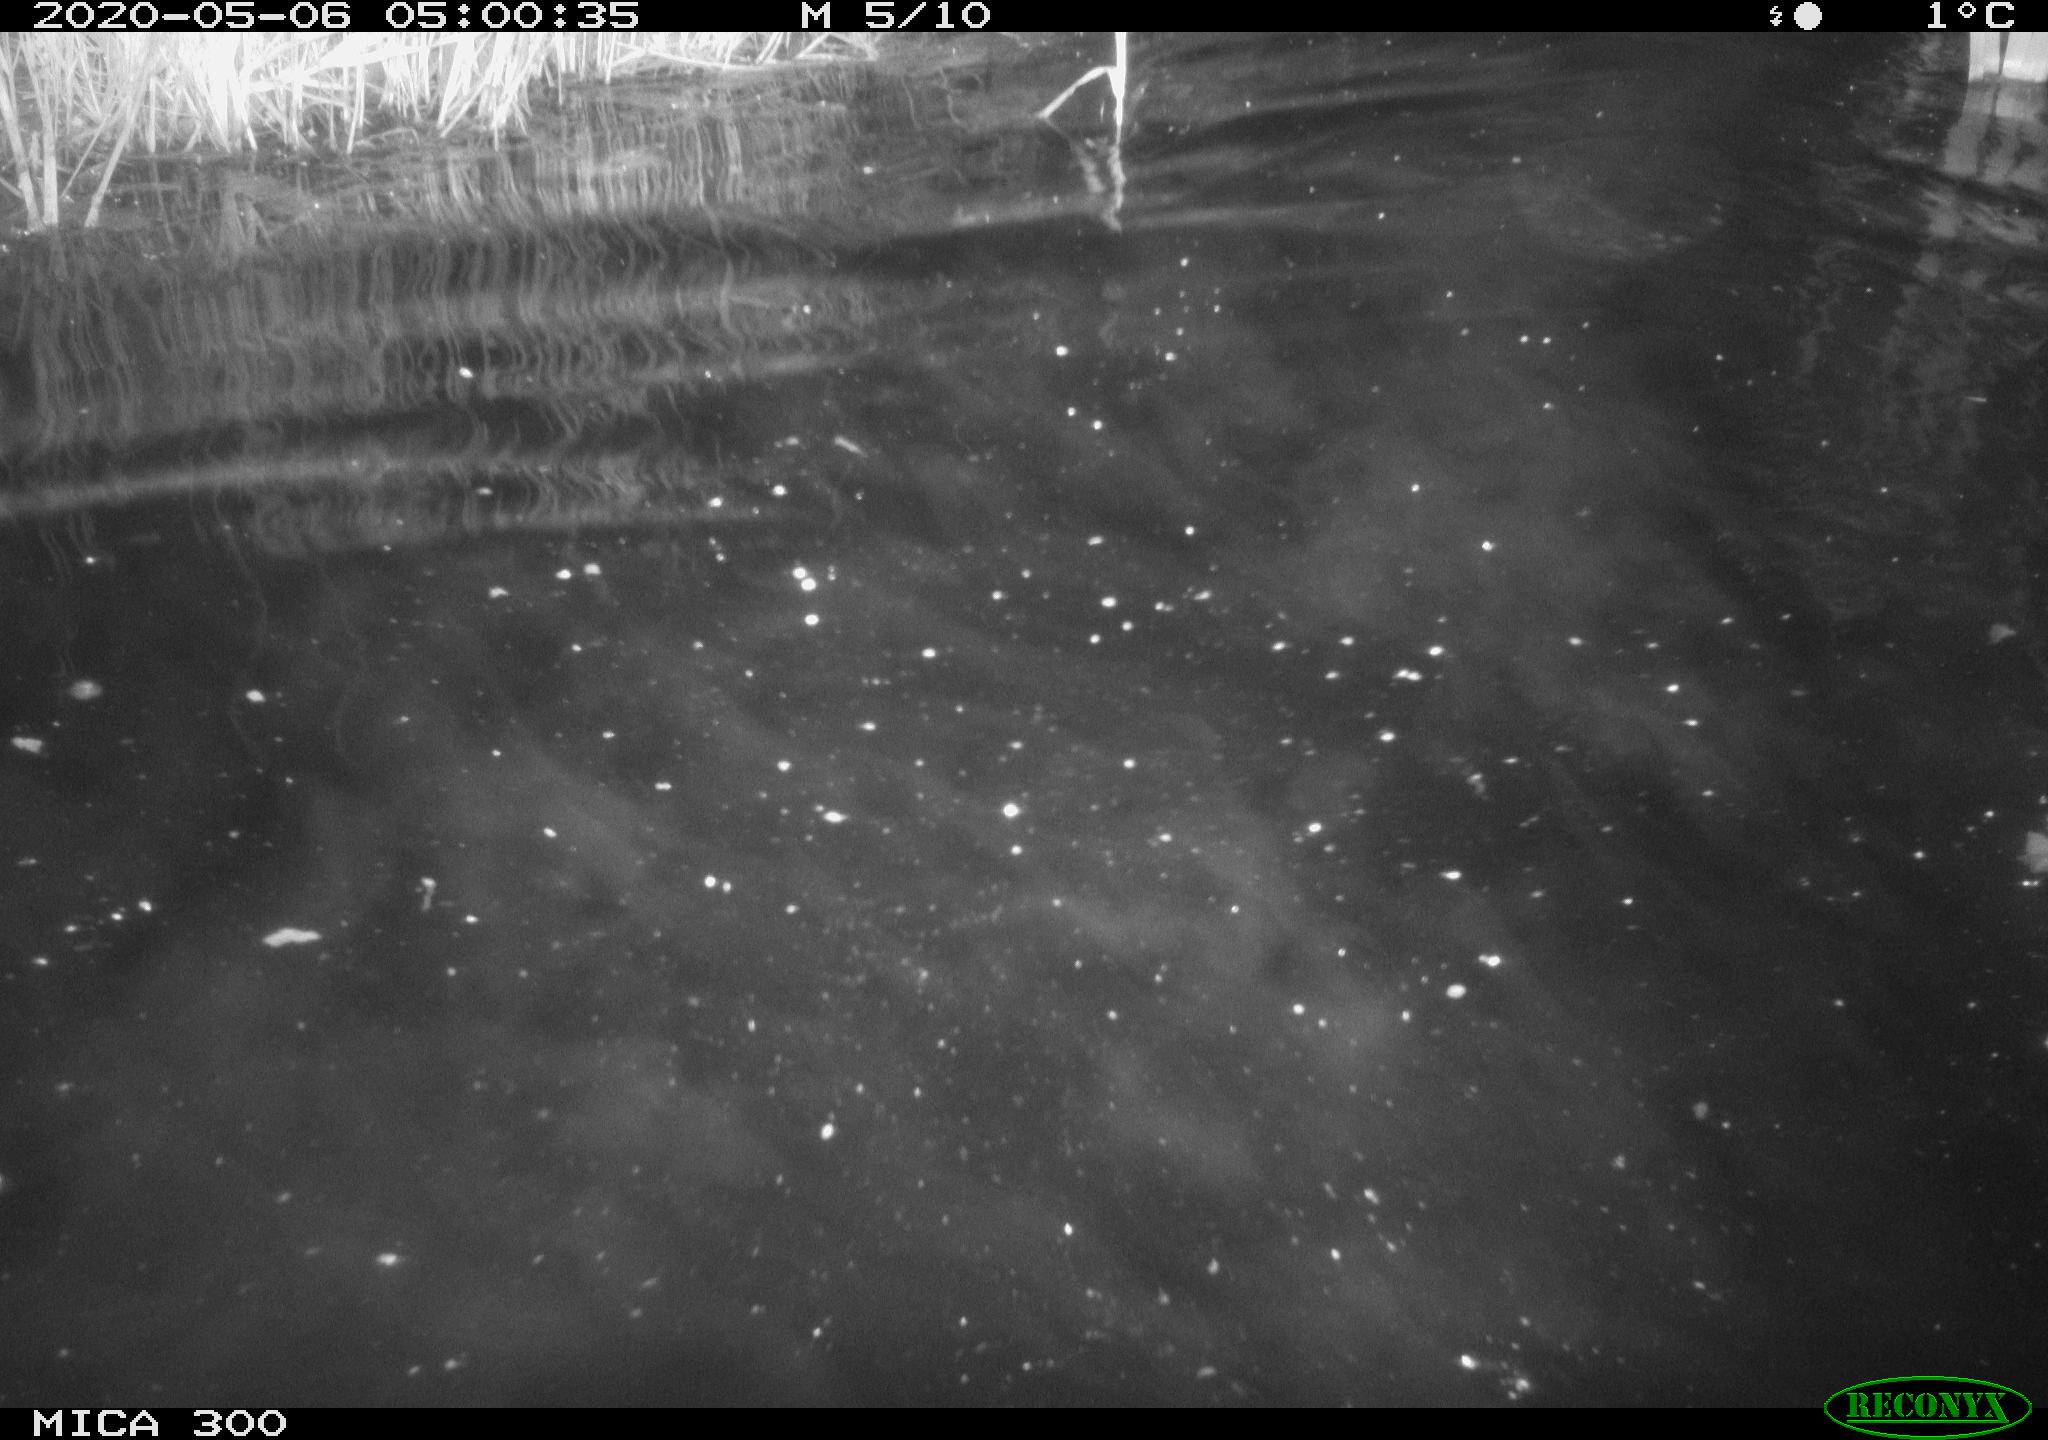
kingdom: Animalia
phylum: Chordata
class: Mammalia
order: Rodentia
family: Castoridae
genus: Castor
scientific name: Castor fiber
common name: Eurasian beaver
